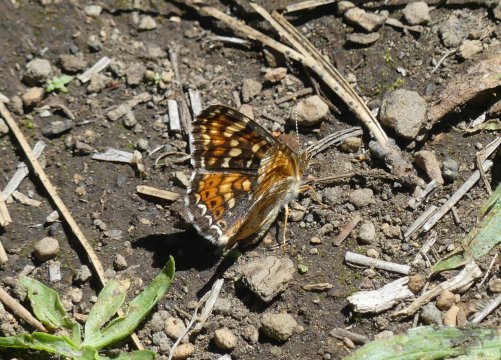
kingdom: Animalia
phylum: Arthropoda
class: Insecta
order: Lepidoptera
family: Nymphalidae
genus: Phyciodes
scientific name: Phyciodes tharos
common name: Field Crescent
